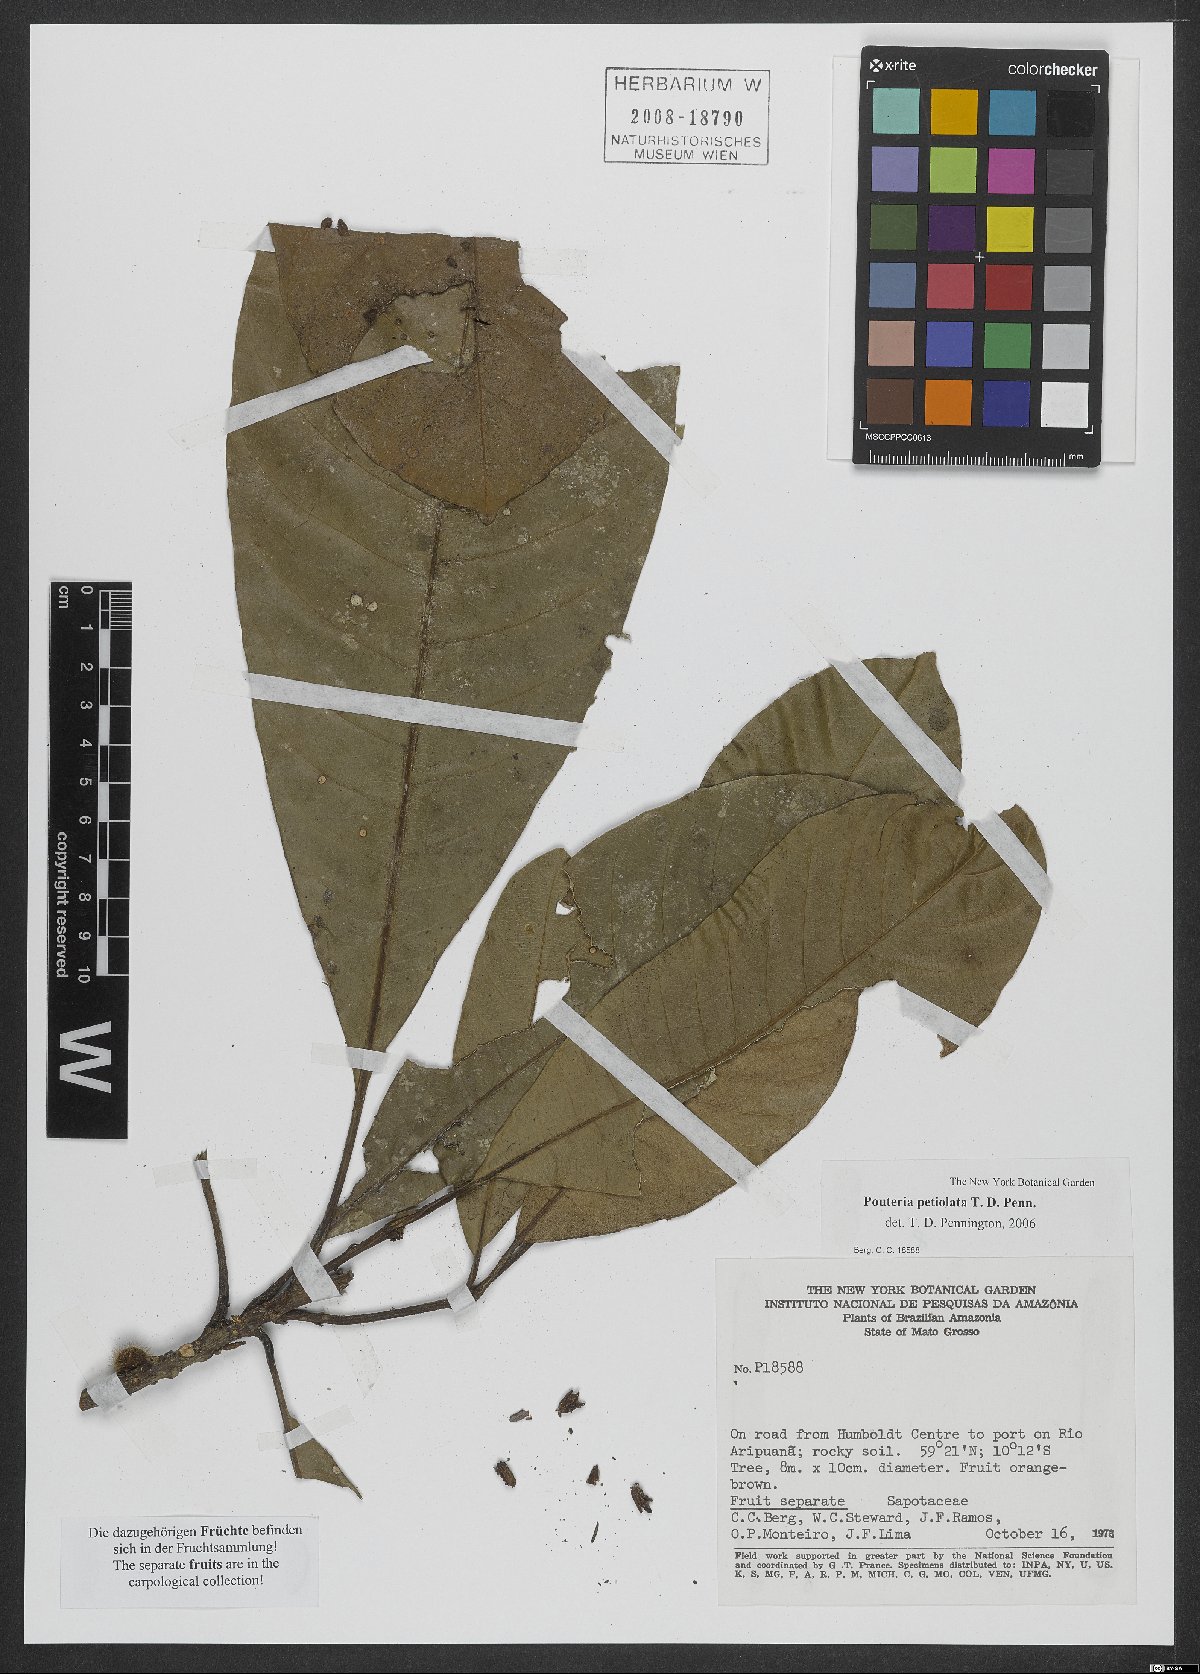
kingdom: Plantae
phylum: Tracheophyta
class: Magnoliopsida
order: Ericales
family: Sapotaceae
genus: Pouteria
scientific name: Pouteria petiolata
